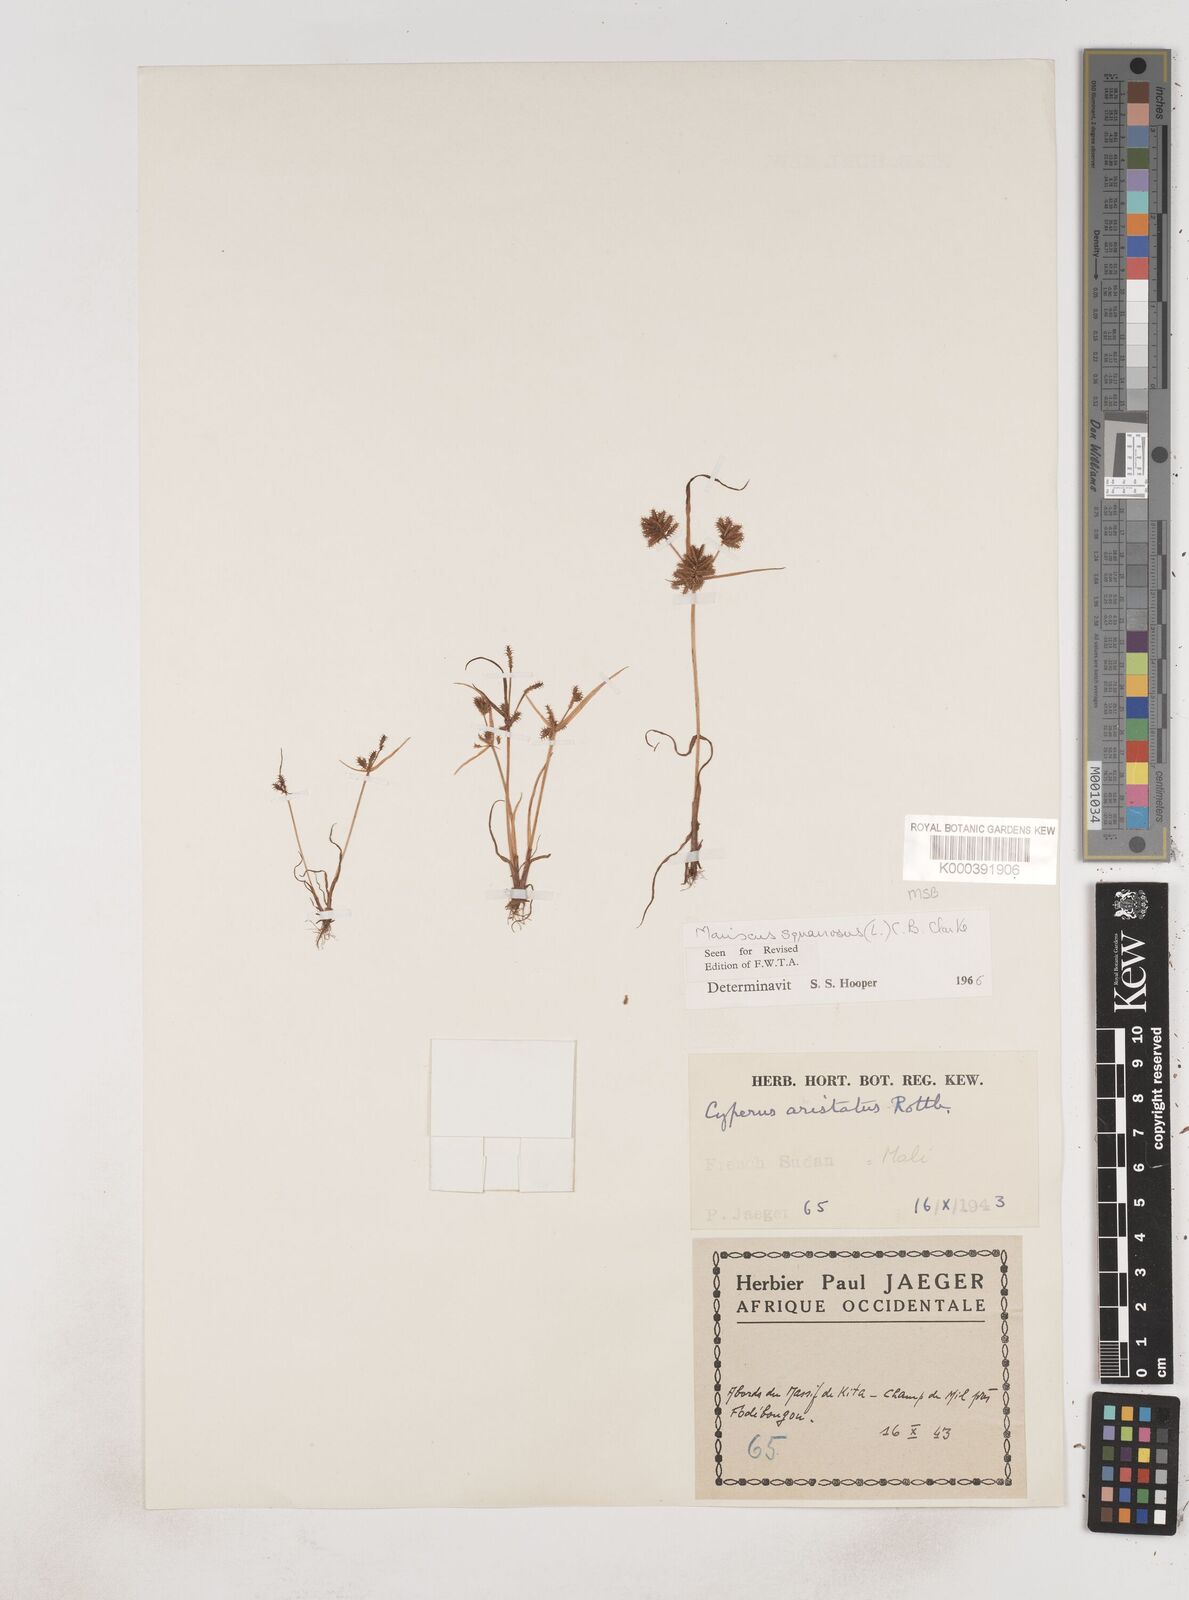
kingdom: Plantae
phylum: Tracheophyta
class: Liliopsida
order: Poales
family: Cyperaceae
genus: Cyperus
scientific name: Cyperus squarrosus
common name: Awned cyperus
